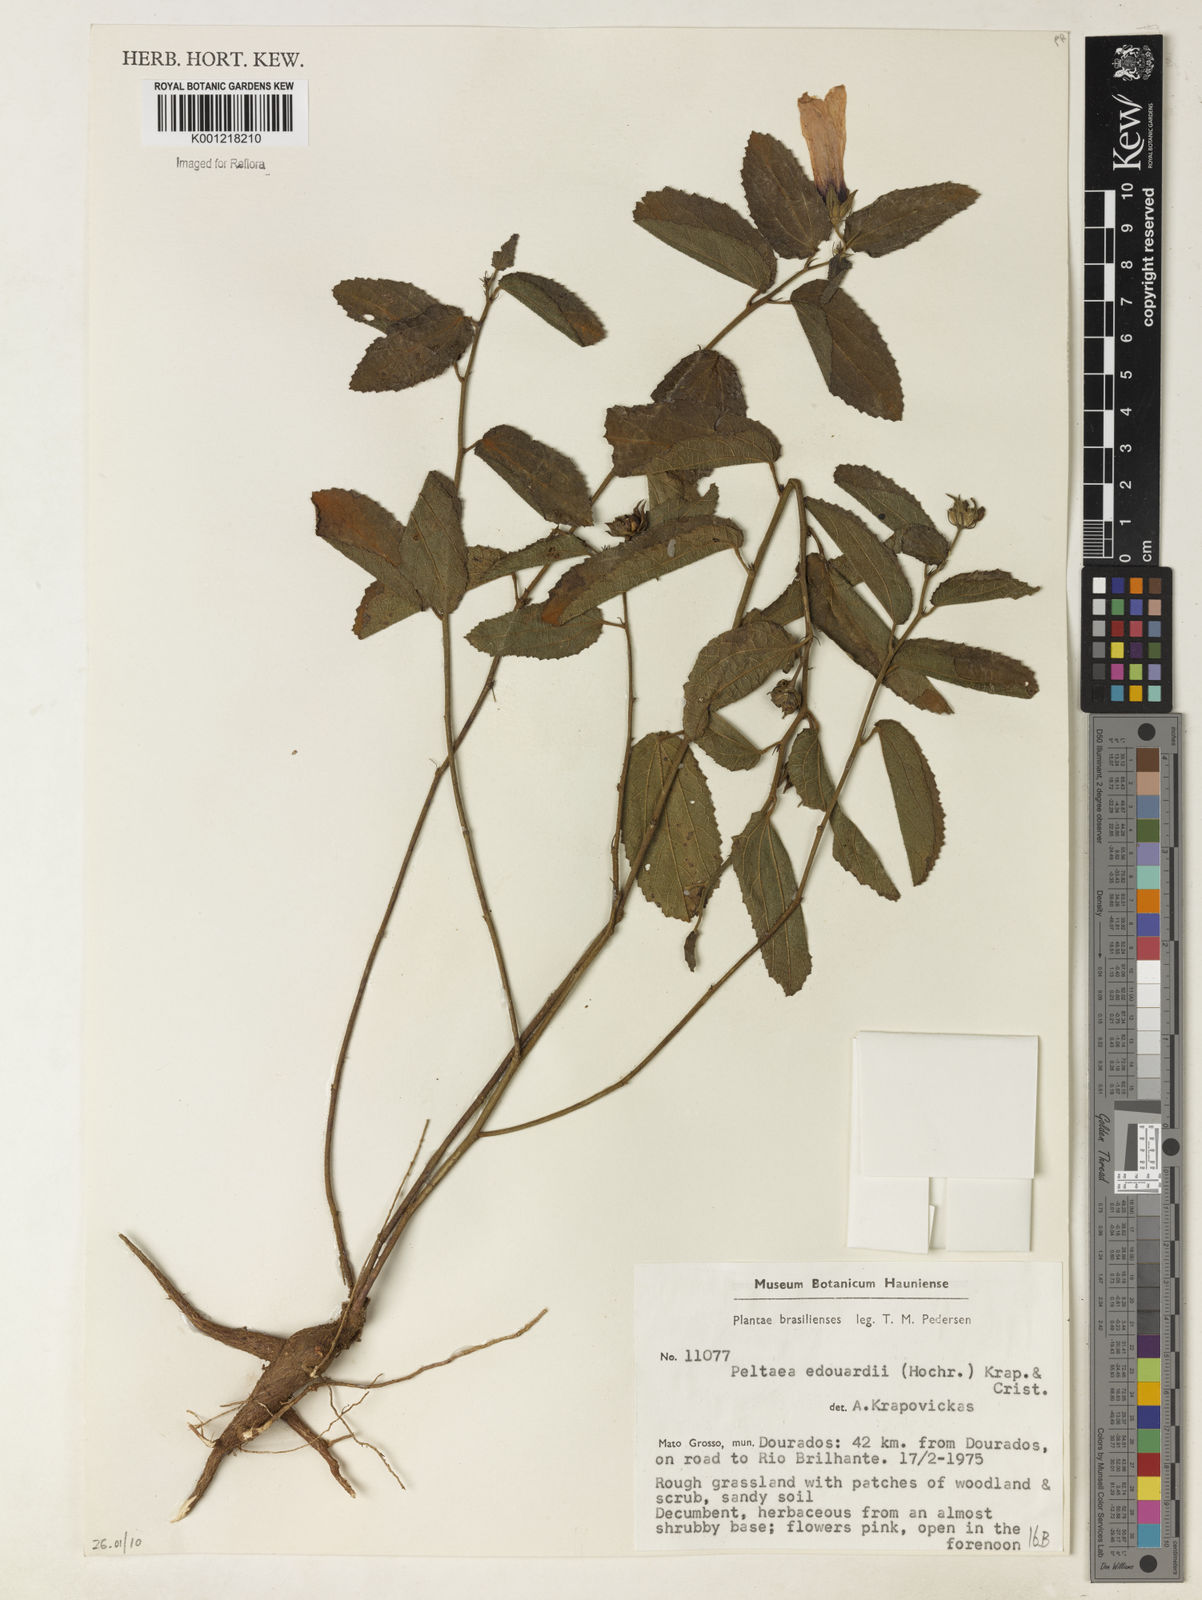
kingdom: Plantae
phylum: Tracheophyta
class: Magnoliopsida
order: Malvales
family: Malvaceae
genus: Peltaea
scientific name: Peltaea
